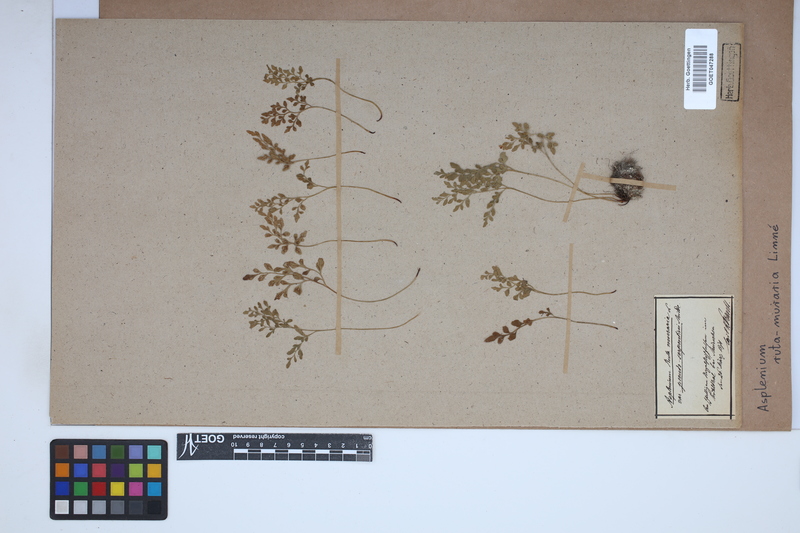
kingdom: Plantae
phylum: Tracheophyta
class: Polypodiopsida
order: Polypodiales
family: Aspleniaceae
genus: Asplenium
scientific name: Asplenium ruta-muraria
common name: Wall-rue
